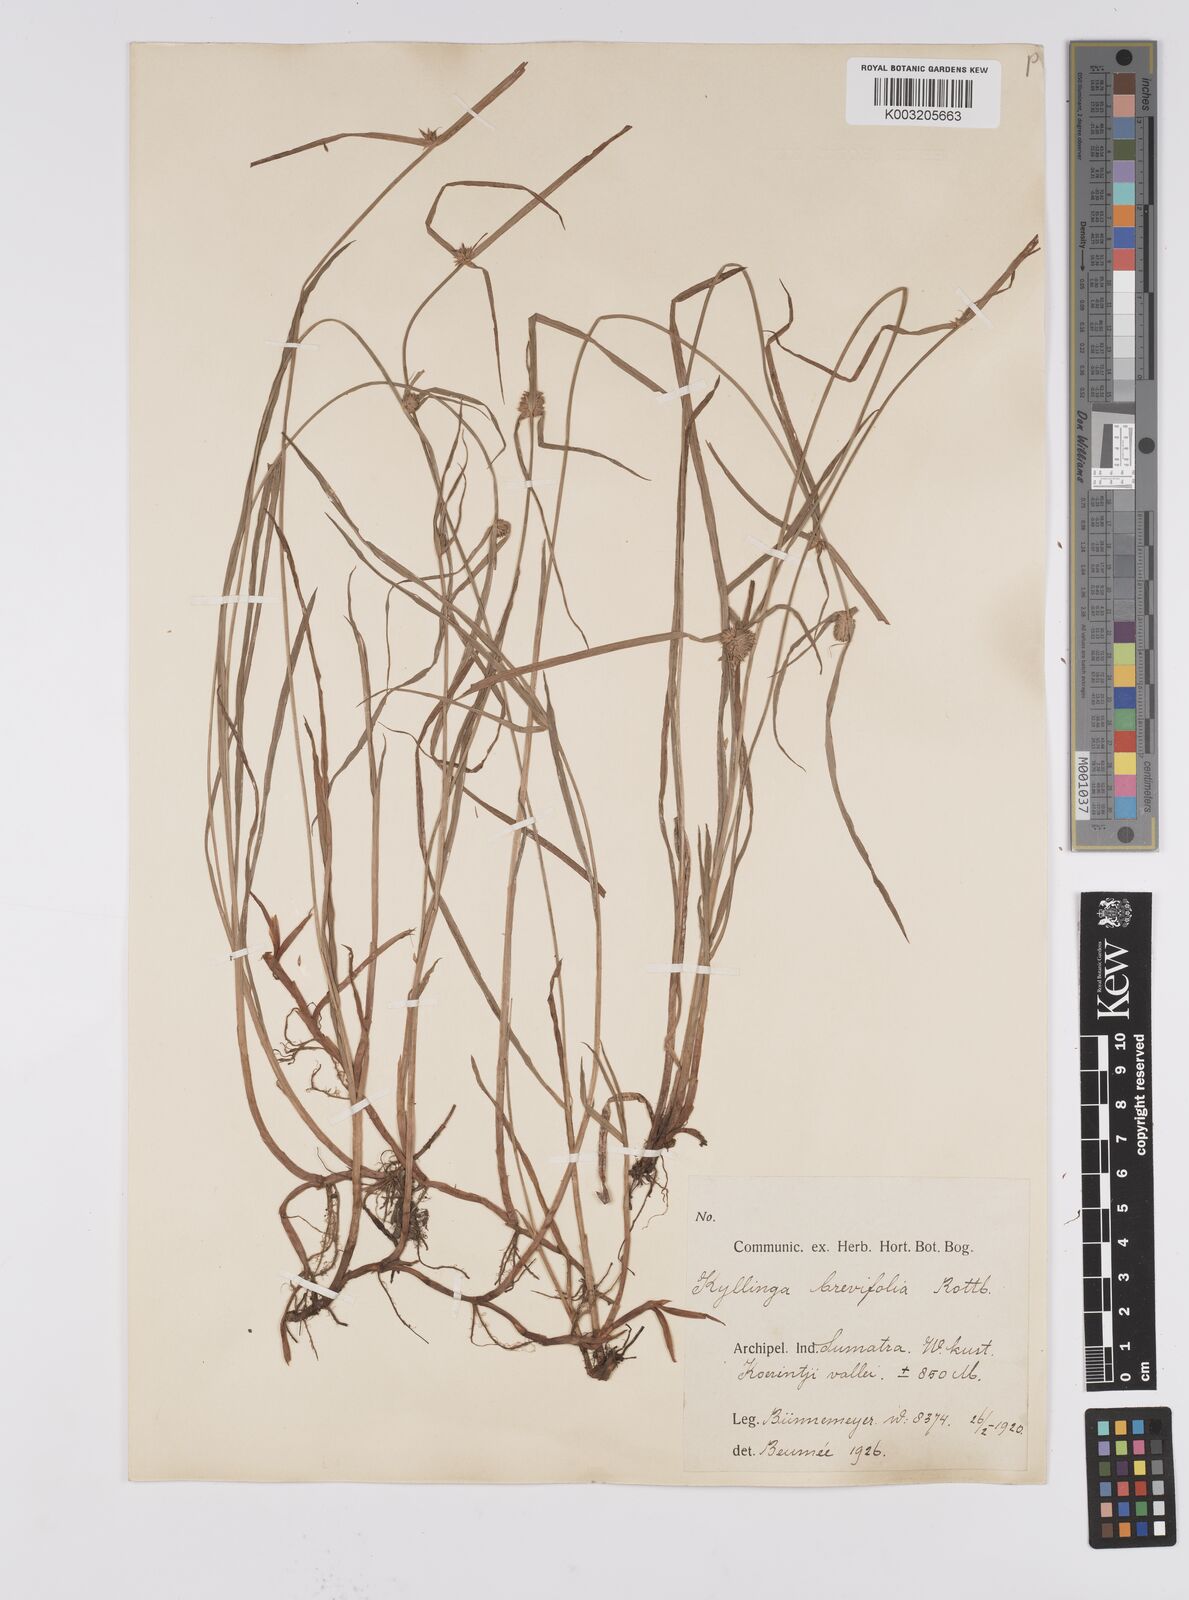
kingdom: Plantae
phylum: Tracheophyta
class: Liliopsida
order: Poales
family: Cyperaceae
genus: Cyperus
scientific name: Cyperus brevifolius
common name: Globe kyllinga
